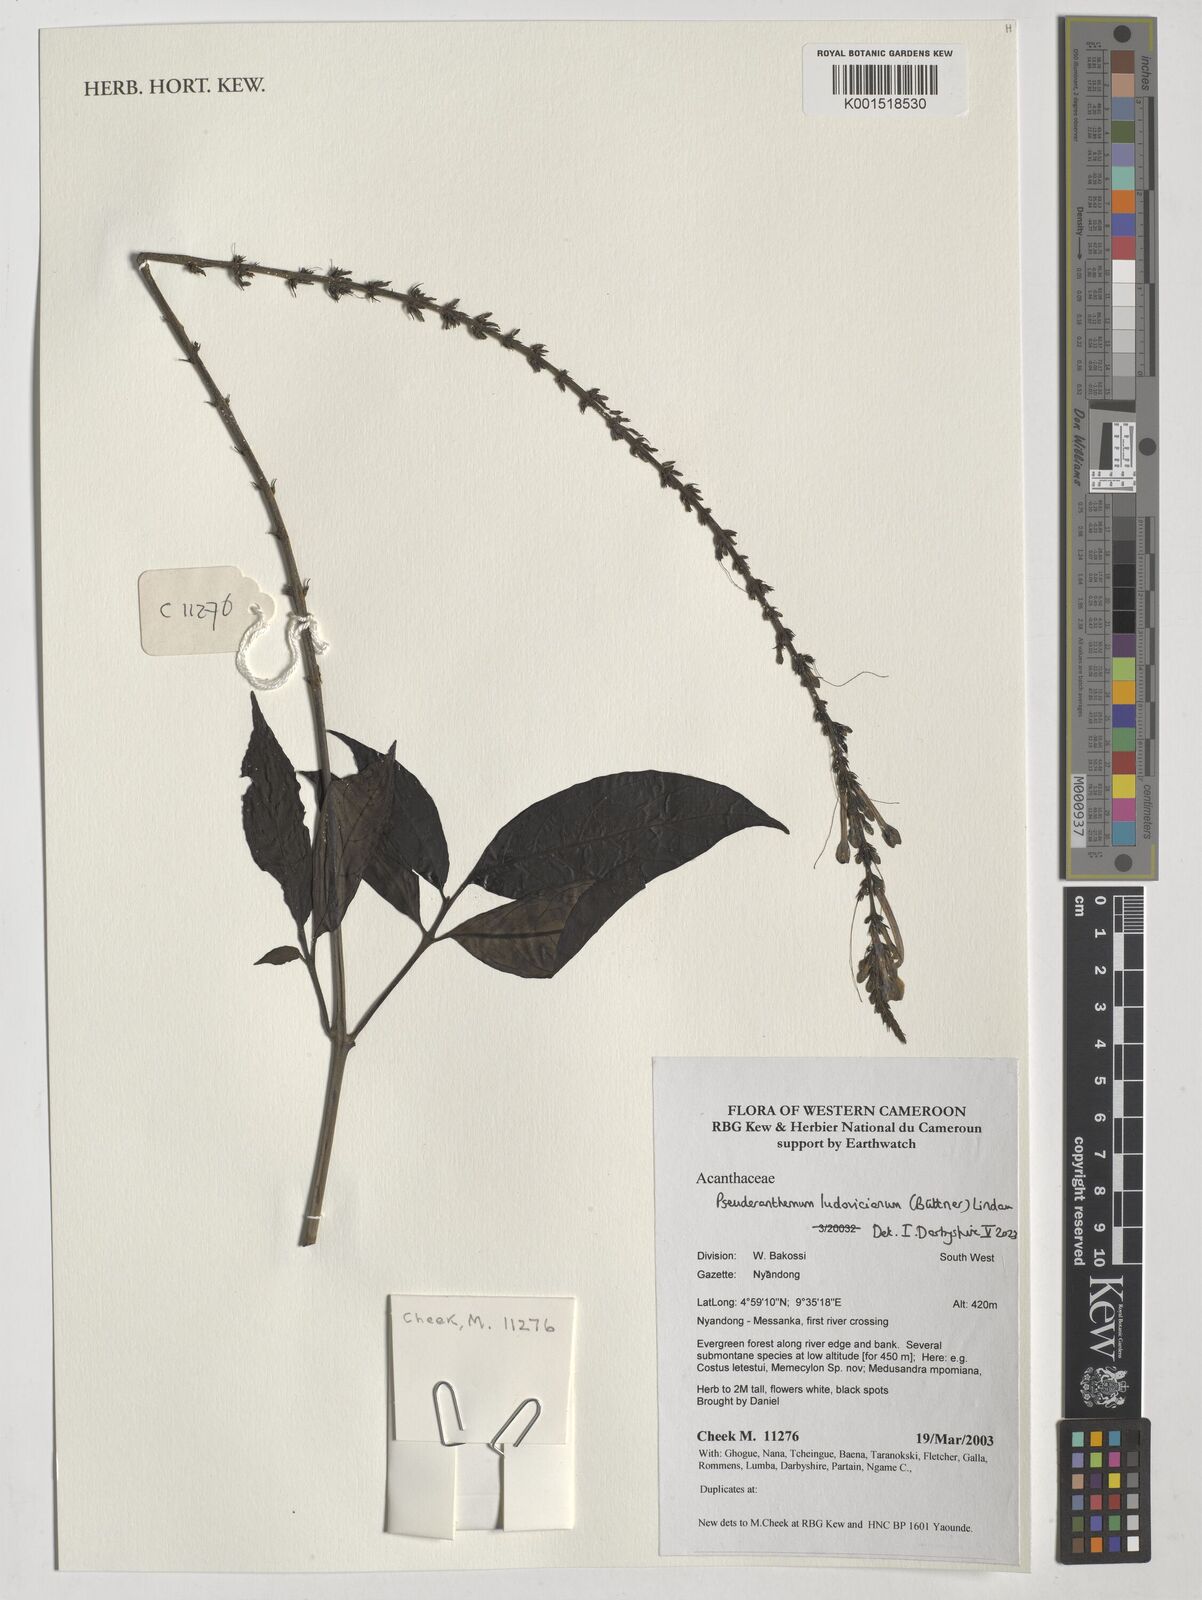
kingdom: Plantae
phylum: Tracheophyta
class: Magnoliopsida
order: Lamiales
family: Acanthaceae
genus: Pseuderanthemum
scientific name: Pseuderanthemum ludovicianum
